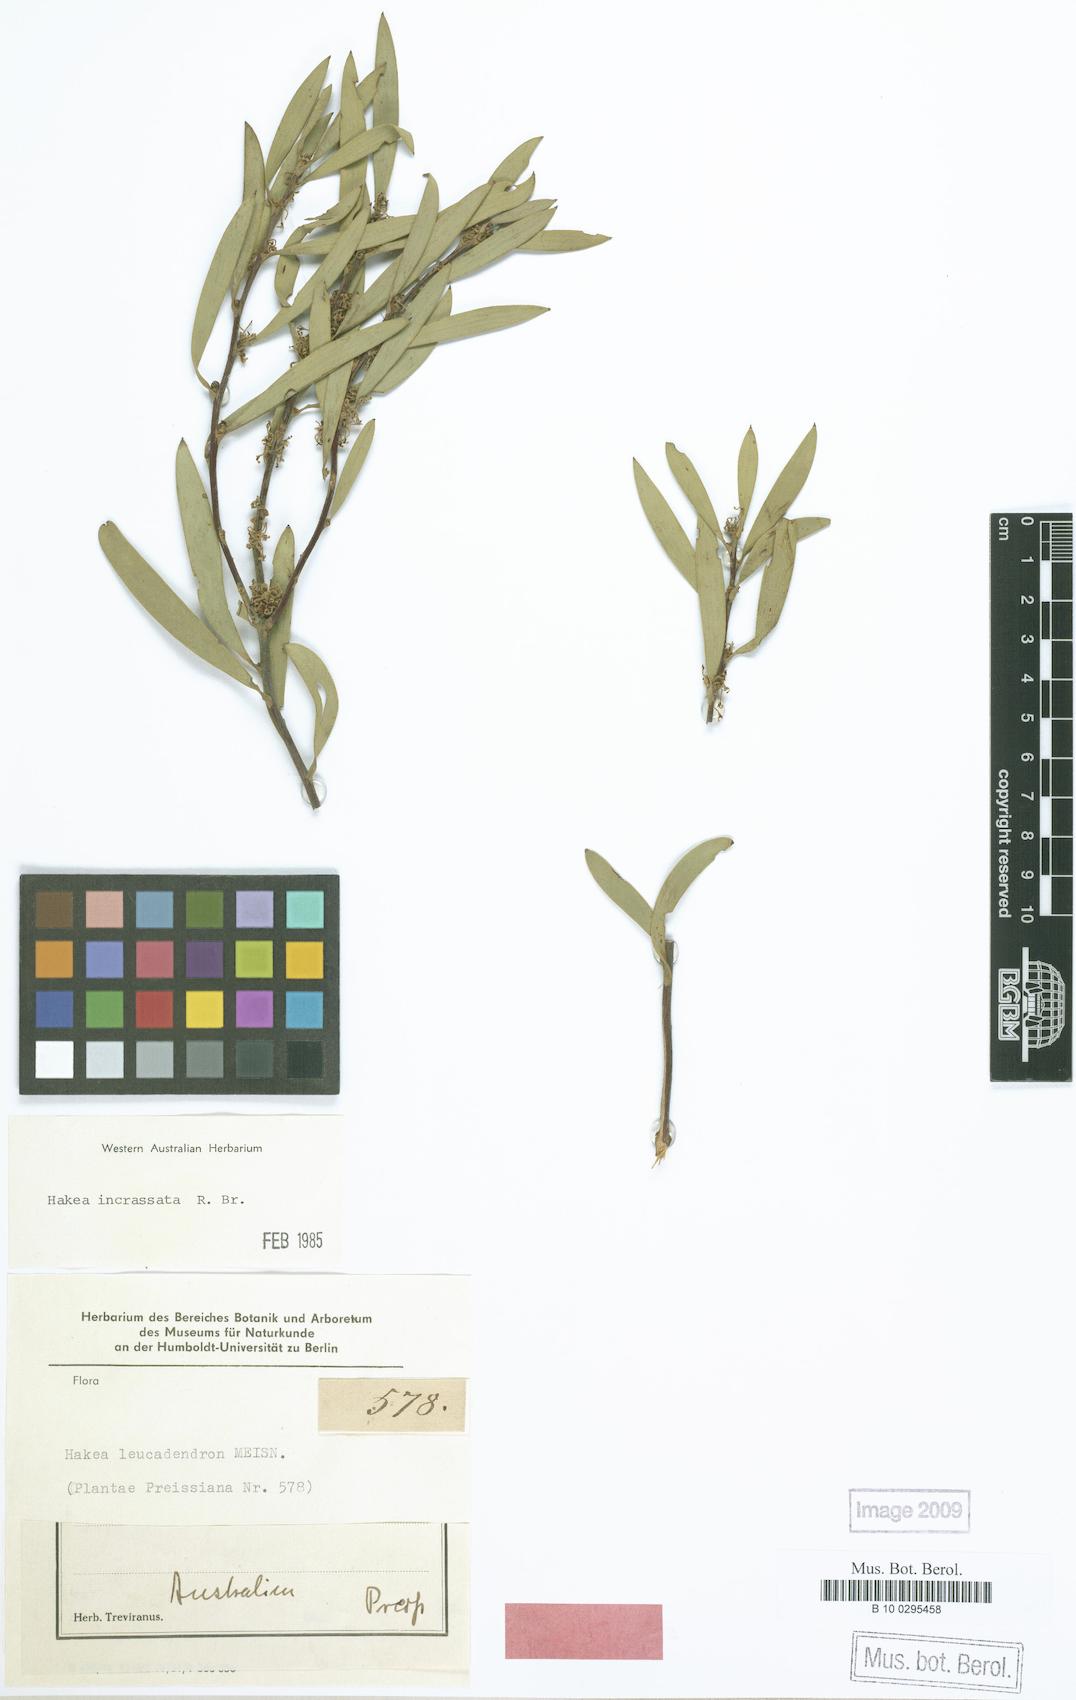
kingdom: Plantae
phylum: Tracheophyta
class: Magnoliopsida
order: Proteales
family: Proteaceae
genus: Hakea
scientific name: Hakea incrassata
